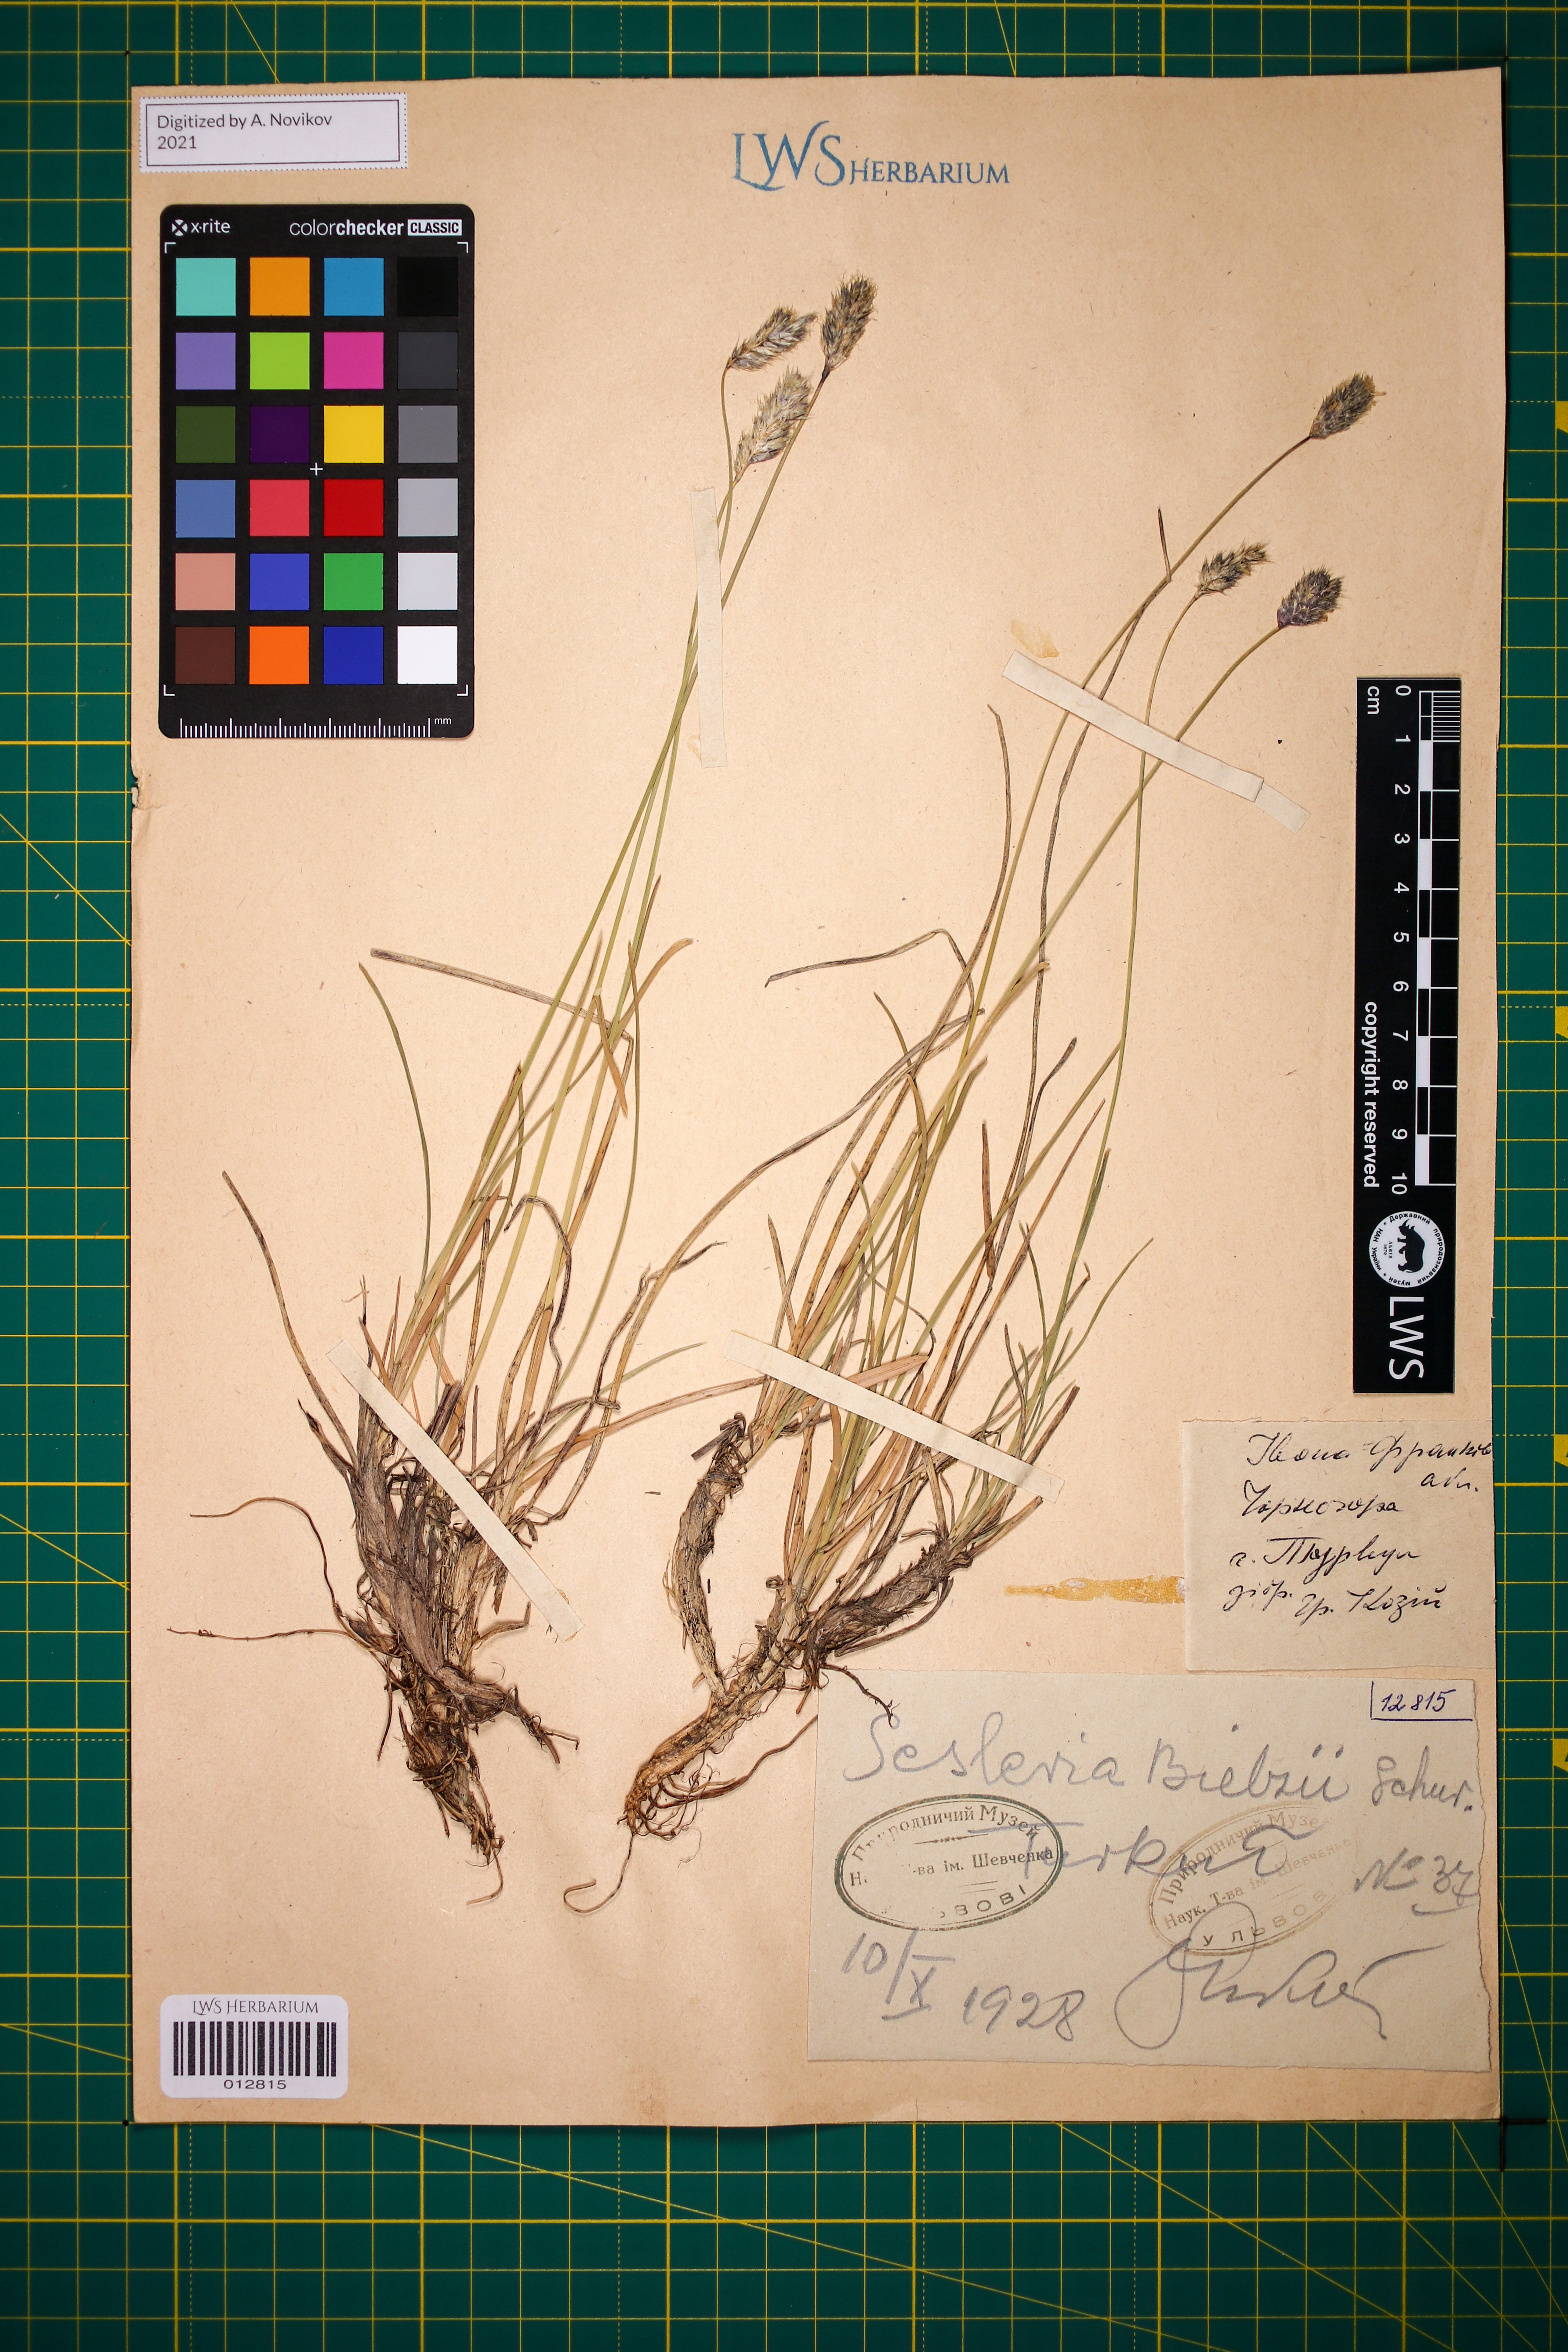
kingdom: Plantae
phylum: Tracheophyta
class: Liliopsida
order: Poales
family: Poaceae
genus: Sesleria
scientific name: Sesleria bielzii
